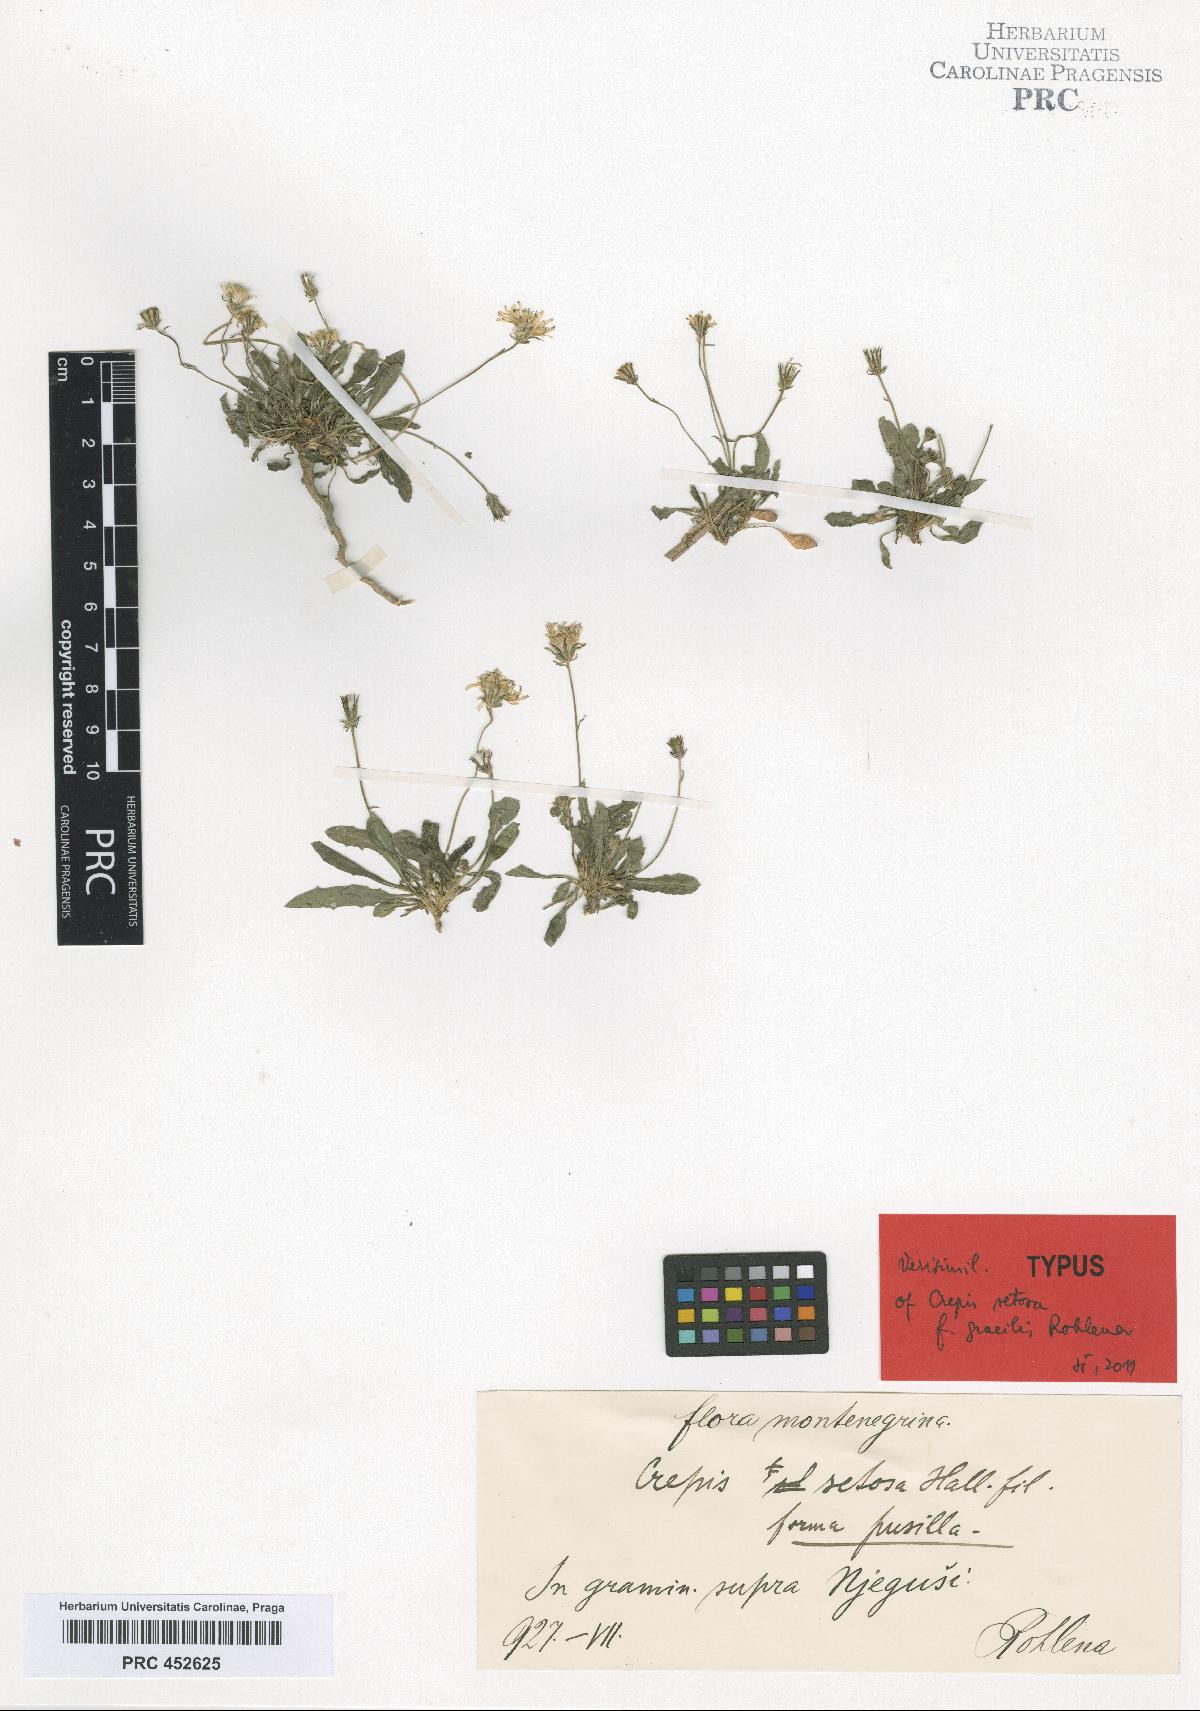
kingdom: Plantae
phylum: Tracheophyta
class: Magnoliopsida
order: Asterales
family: Asteraceae
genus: Crepis
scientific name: Crepis setosa
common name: Bristly hawk's-beard
